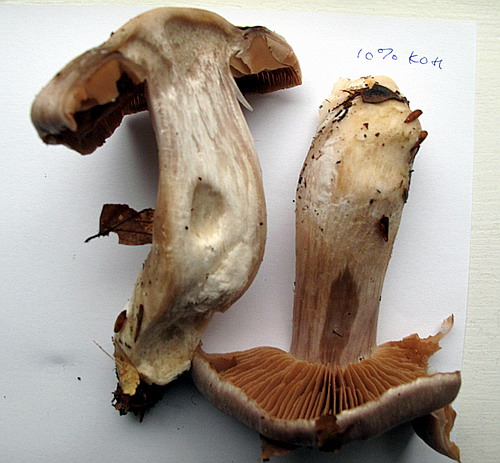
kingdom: Fungi
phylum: Basidiomycota
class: Agaricomycetes
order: Agaricales
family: Cortinariaceae
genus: Cortinarius
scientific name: Cortinarius turgidus
